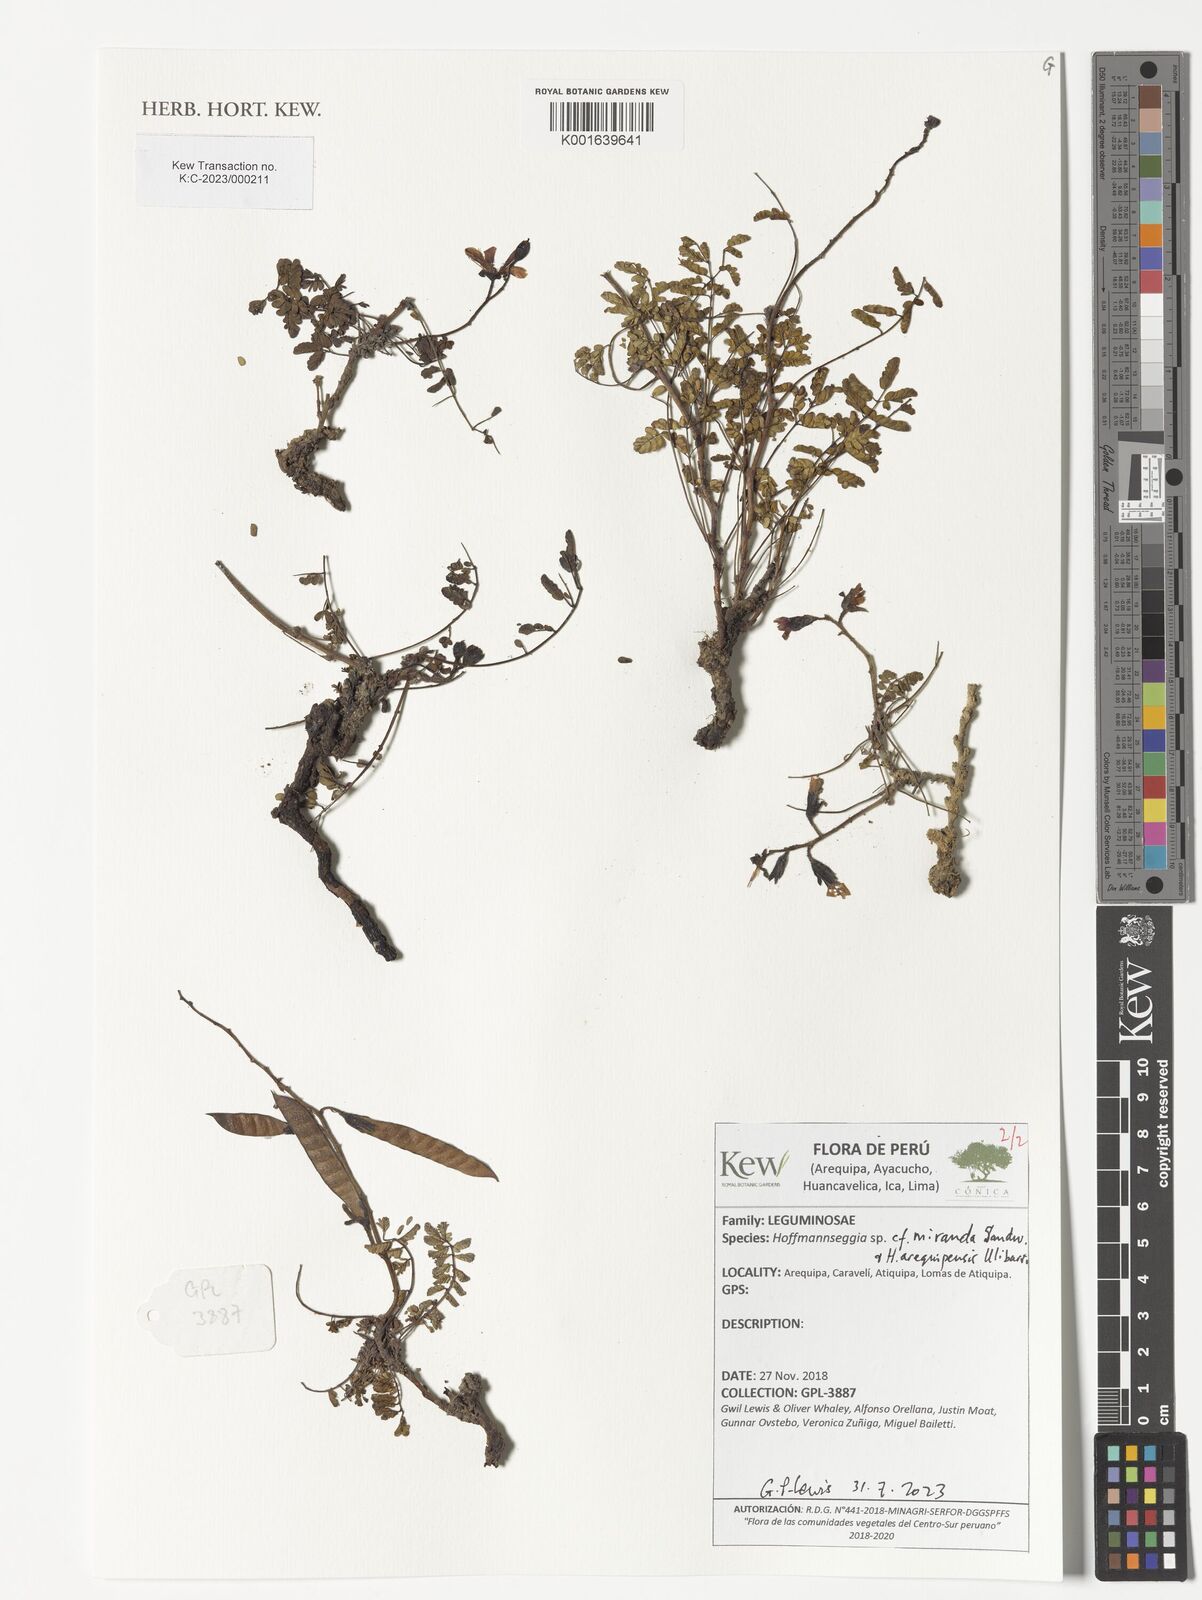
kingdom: Plantae
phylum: Tracheophyta
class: Magnoliopsida
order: Fabales
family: Fabaceae
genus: Hoffmannseggia
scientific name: Hoffmannseggia miranda
